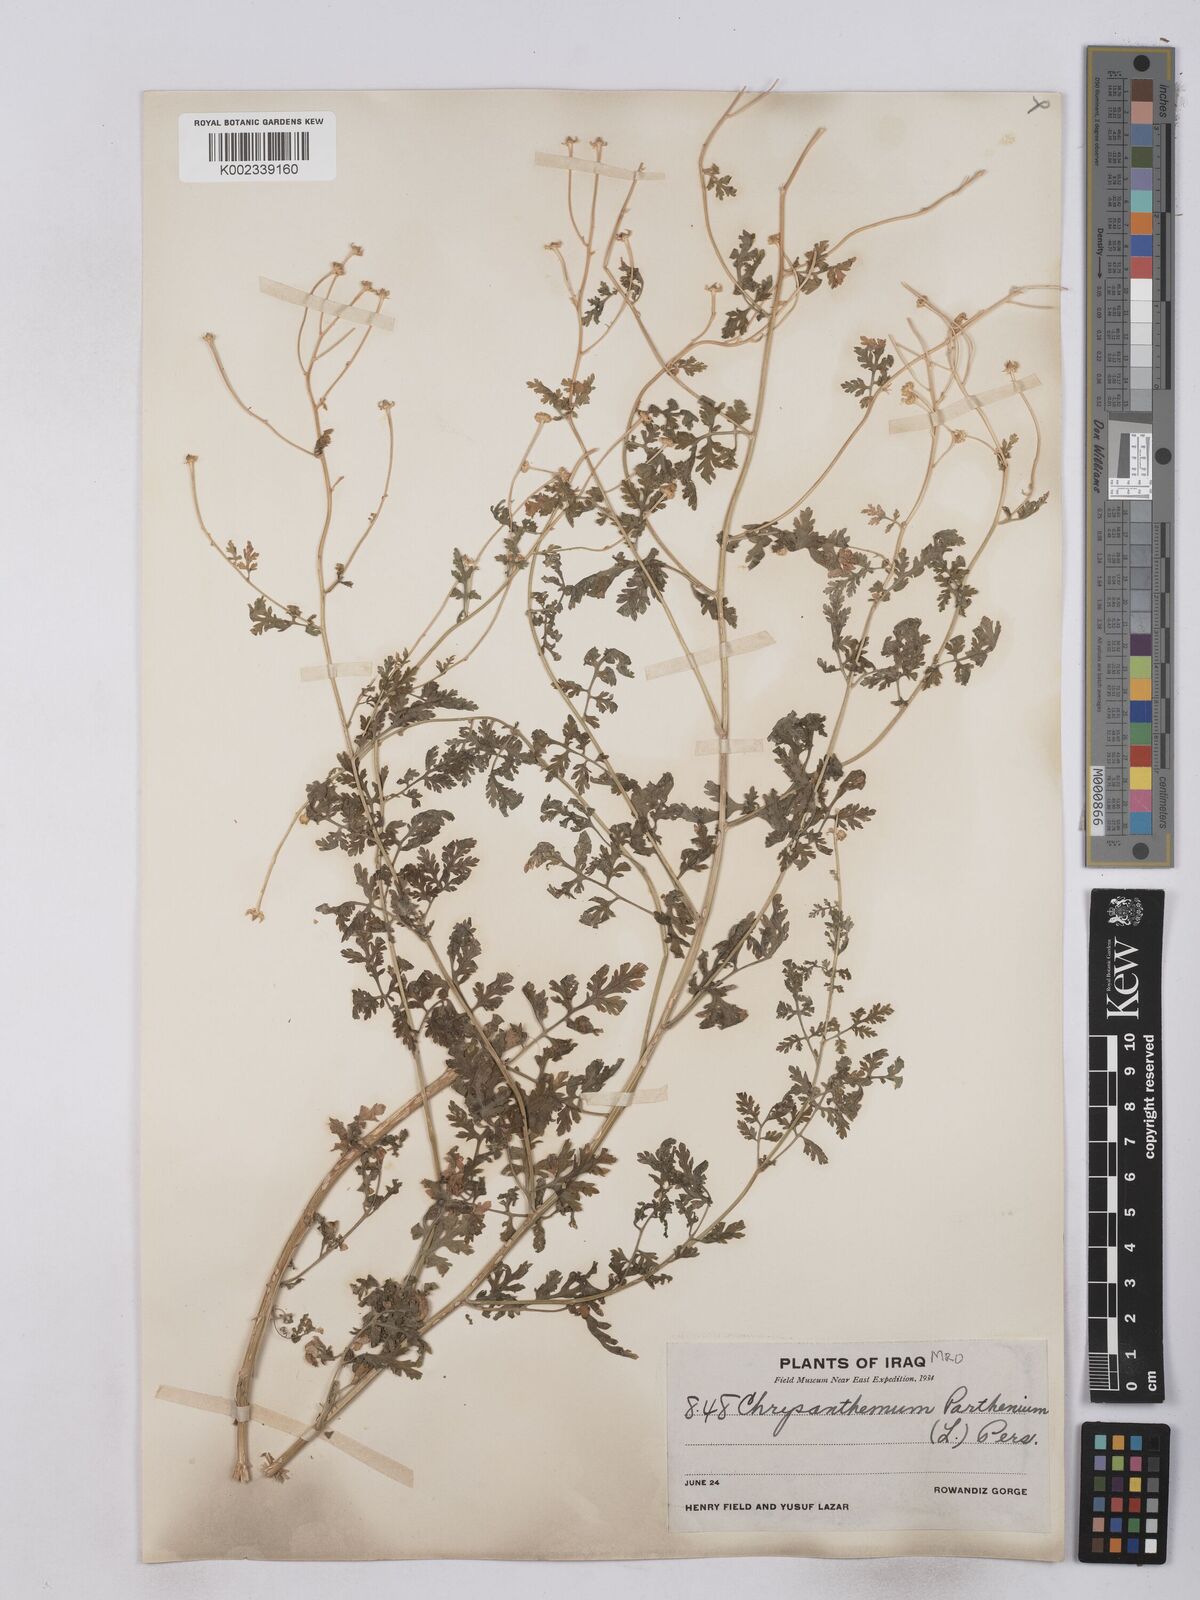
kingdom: Plantae
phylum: Tracheophyta
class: Magnoliopsida
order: Asterales
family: Asteraceae
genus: Tanacetum
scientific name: Tanacetum partheniifolium
